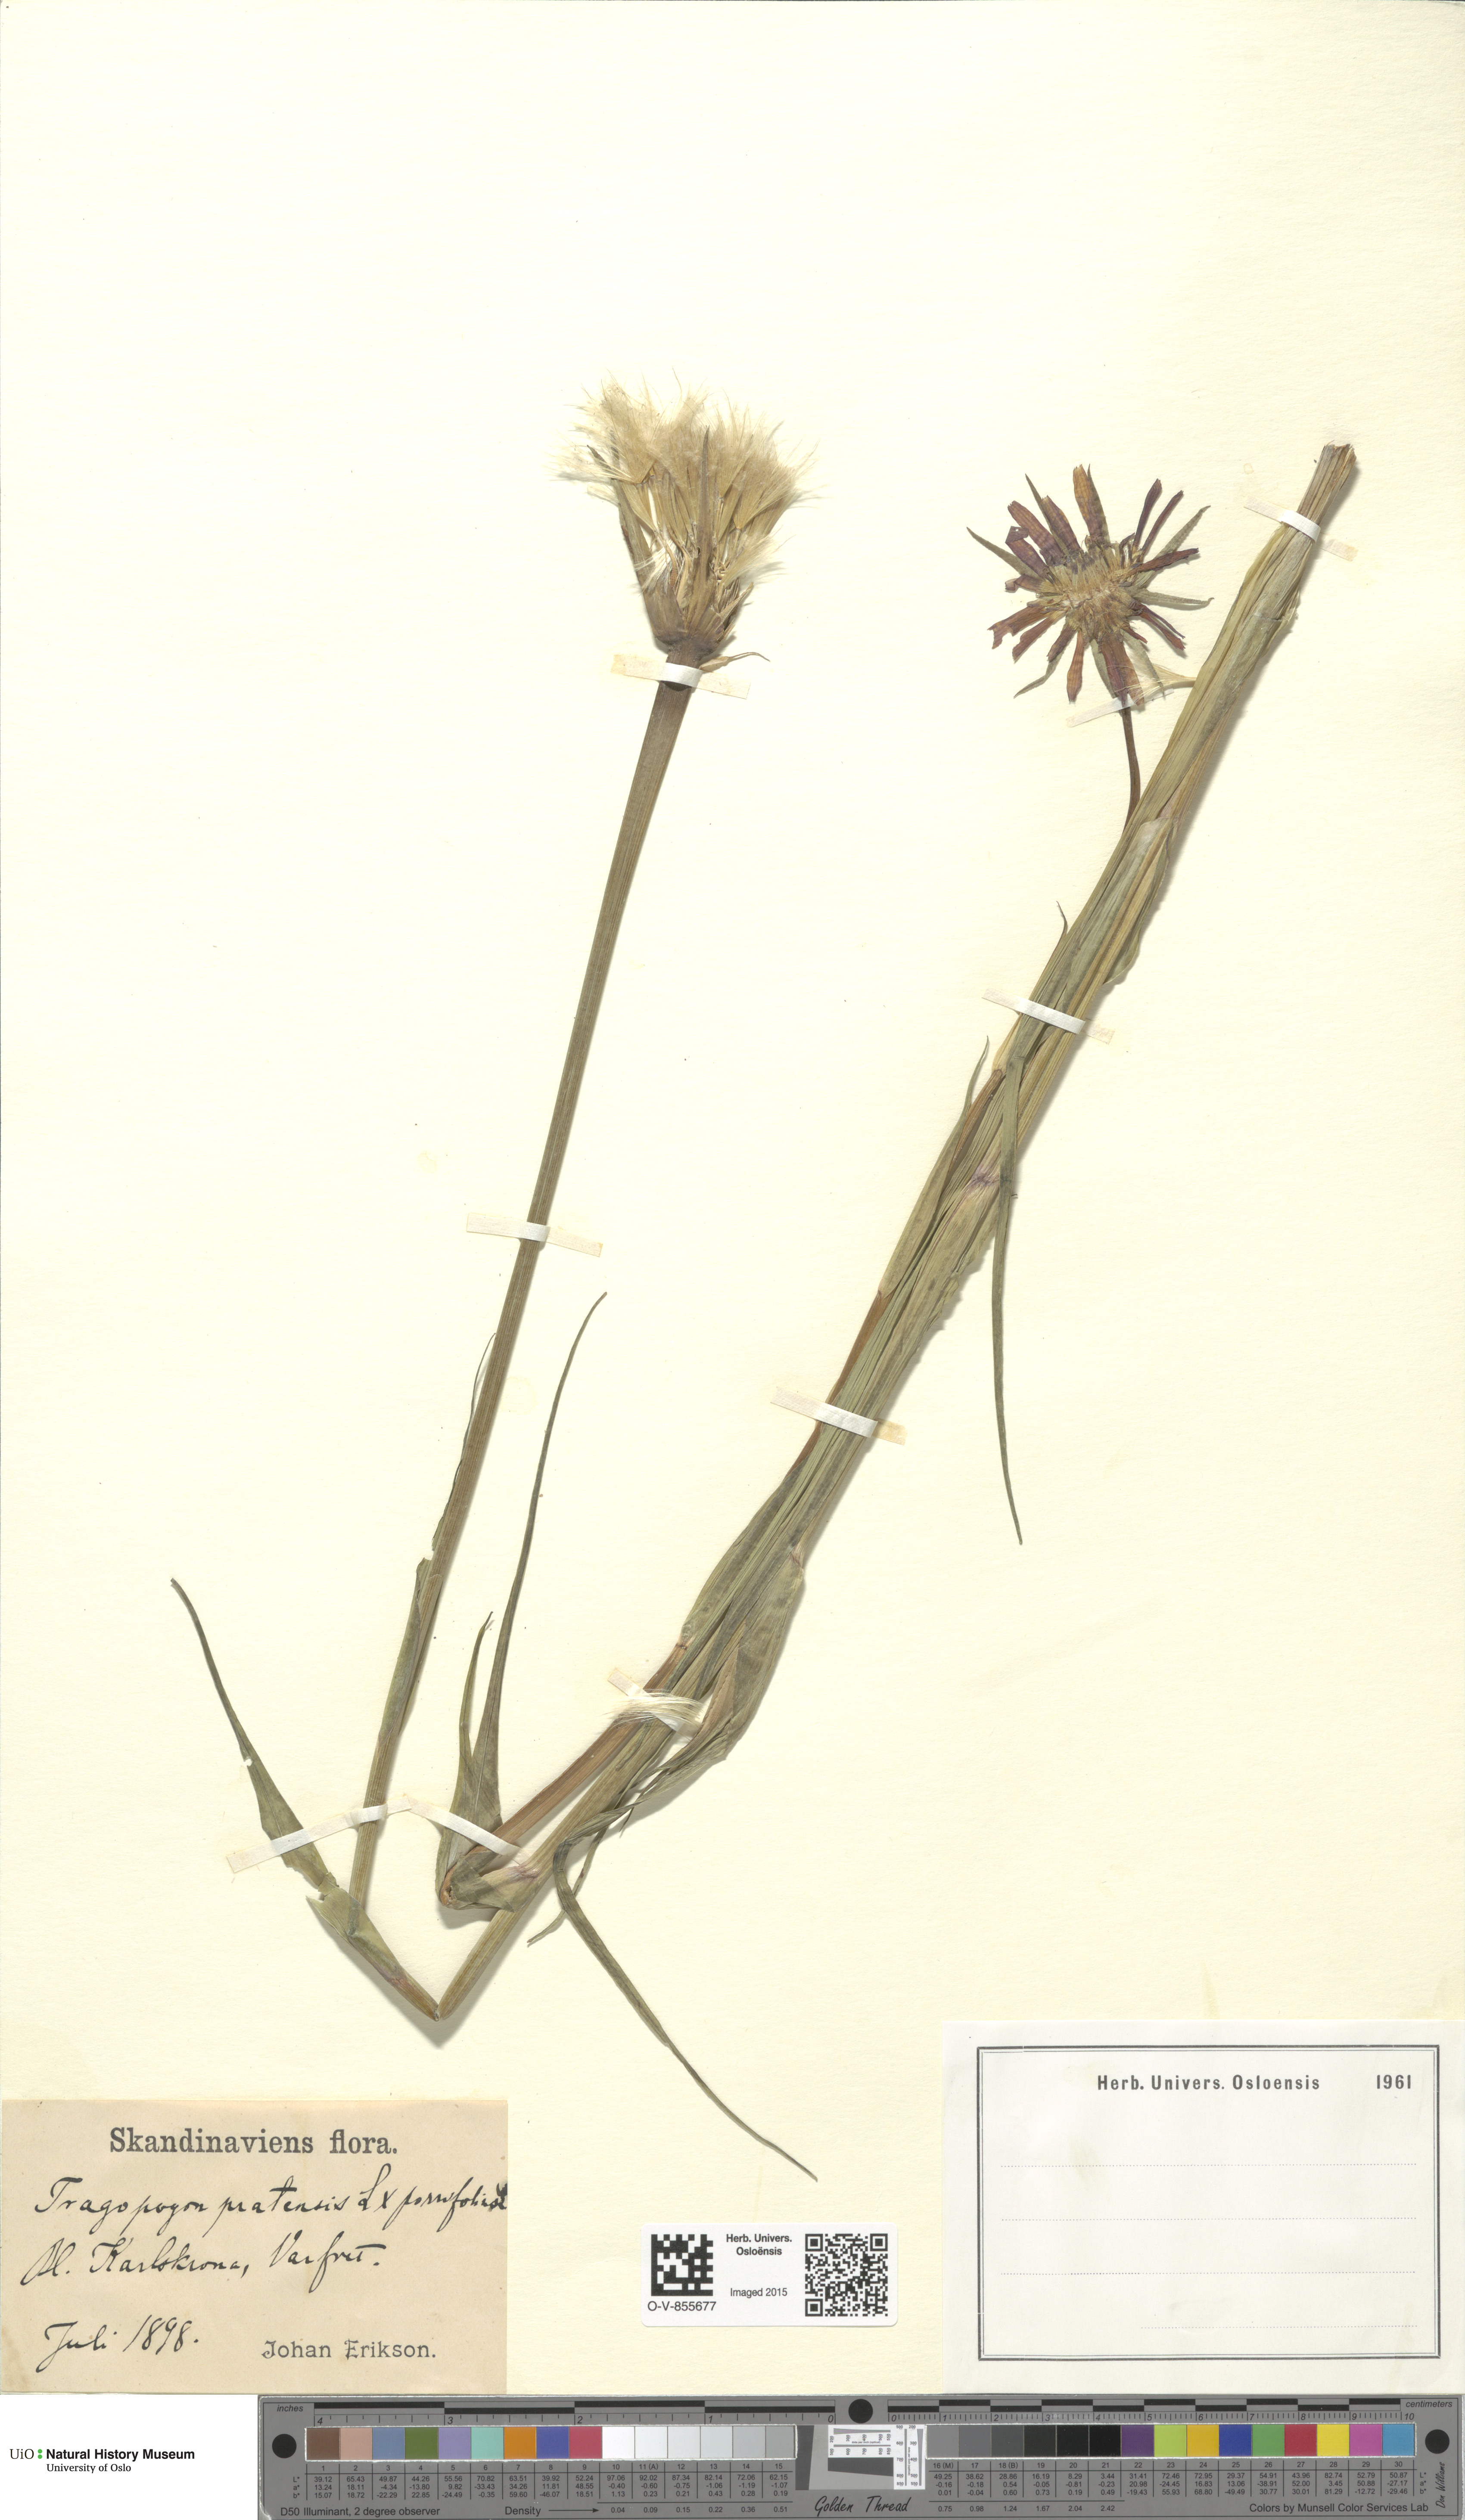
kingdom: Plantae
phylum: Tracheophyta
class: Magnoliopsida
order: Asterales
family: Asteraceae
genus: Tragopogon
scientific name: Tragopogon
